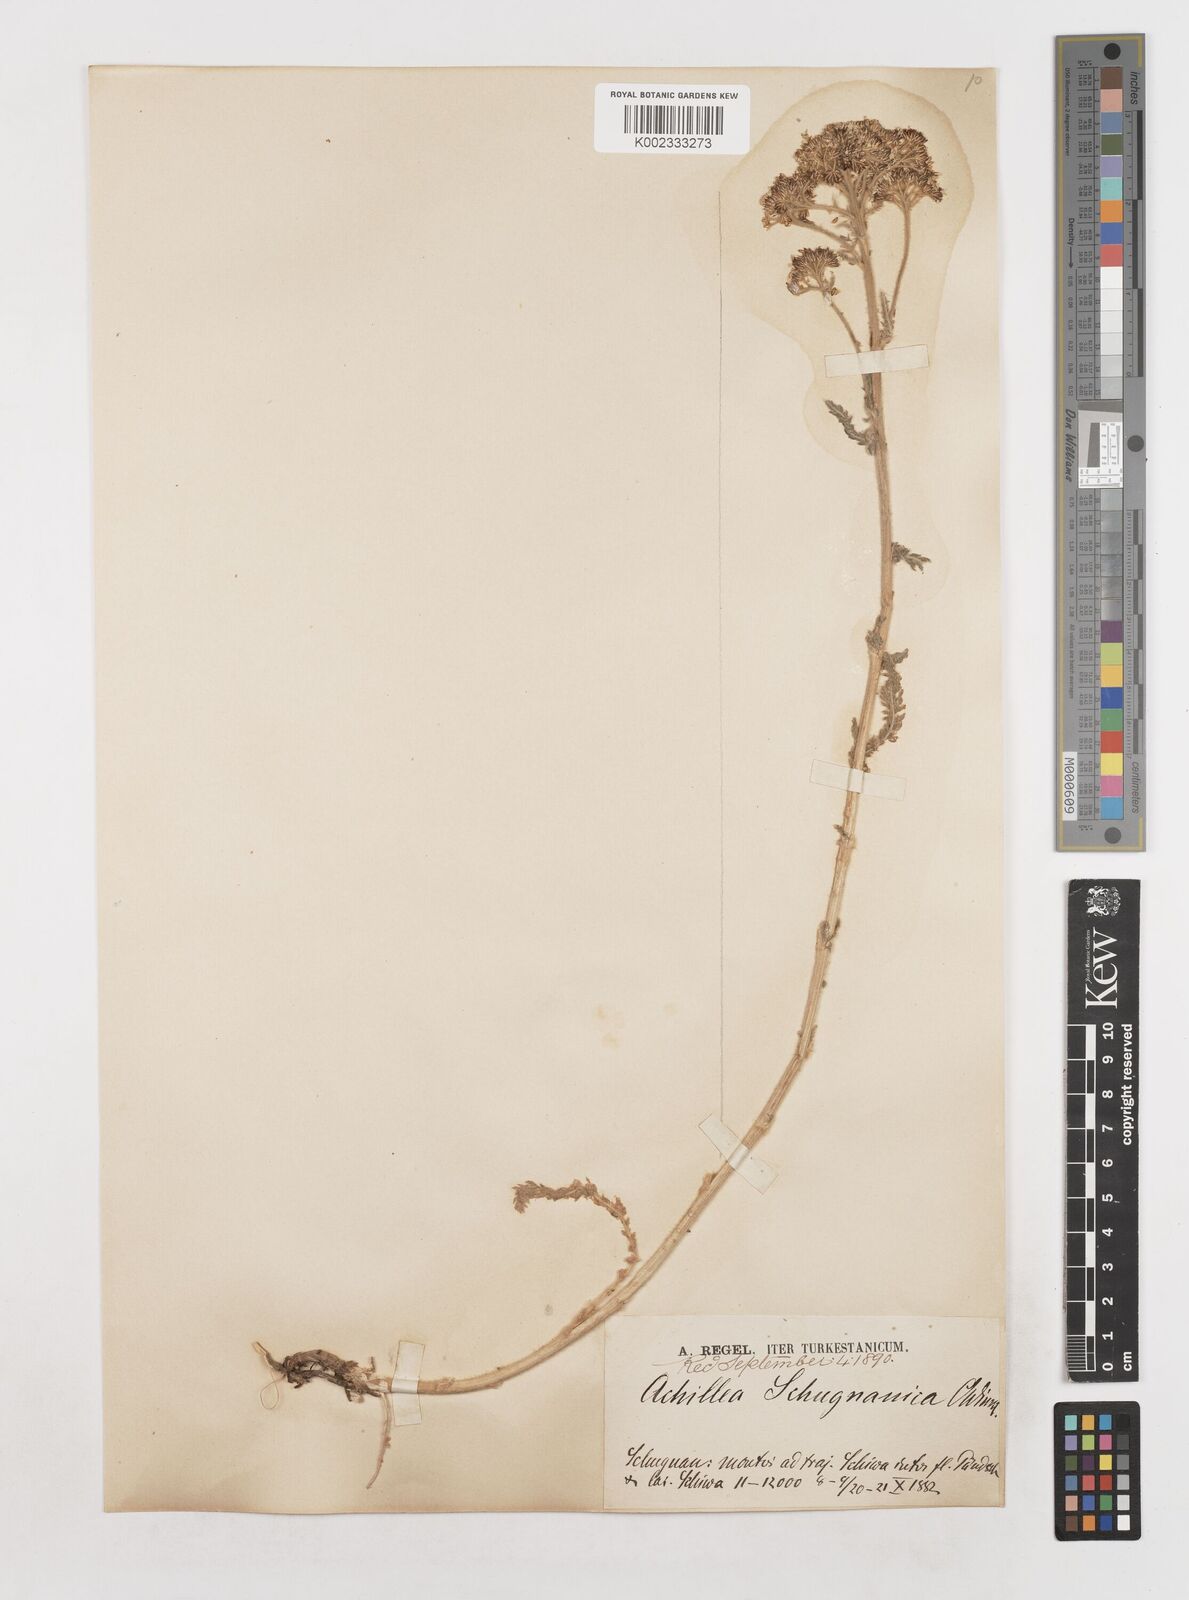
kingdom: Plantae
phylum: Tracheophyta
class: Magnoliopsida
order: Asterales
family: Asteraceae
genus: Achillea
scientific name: Achillea schugnanica
